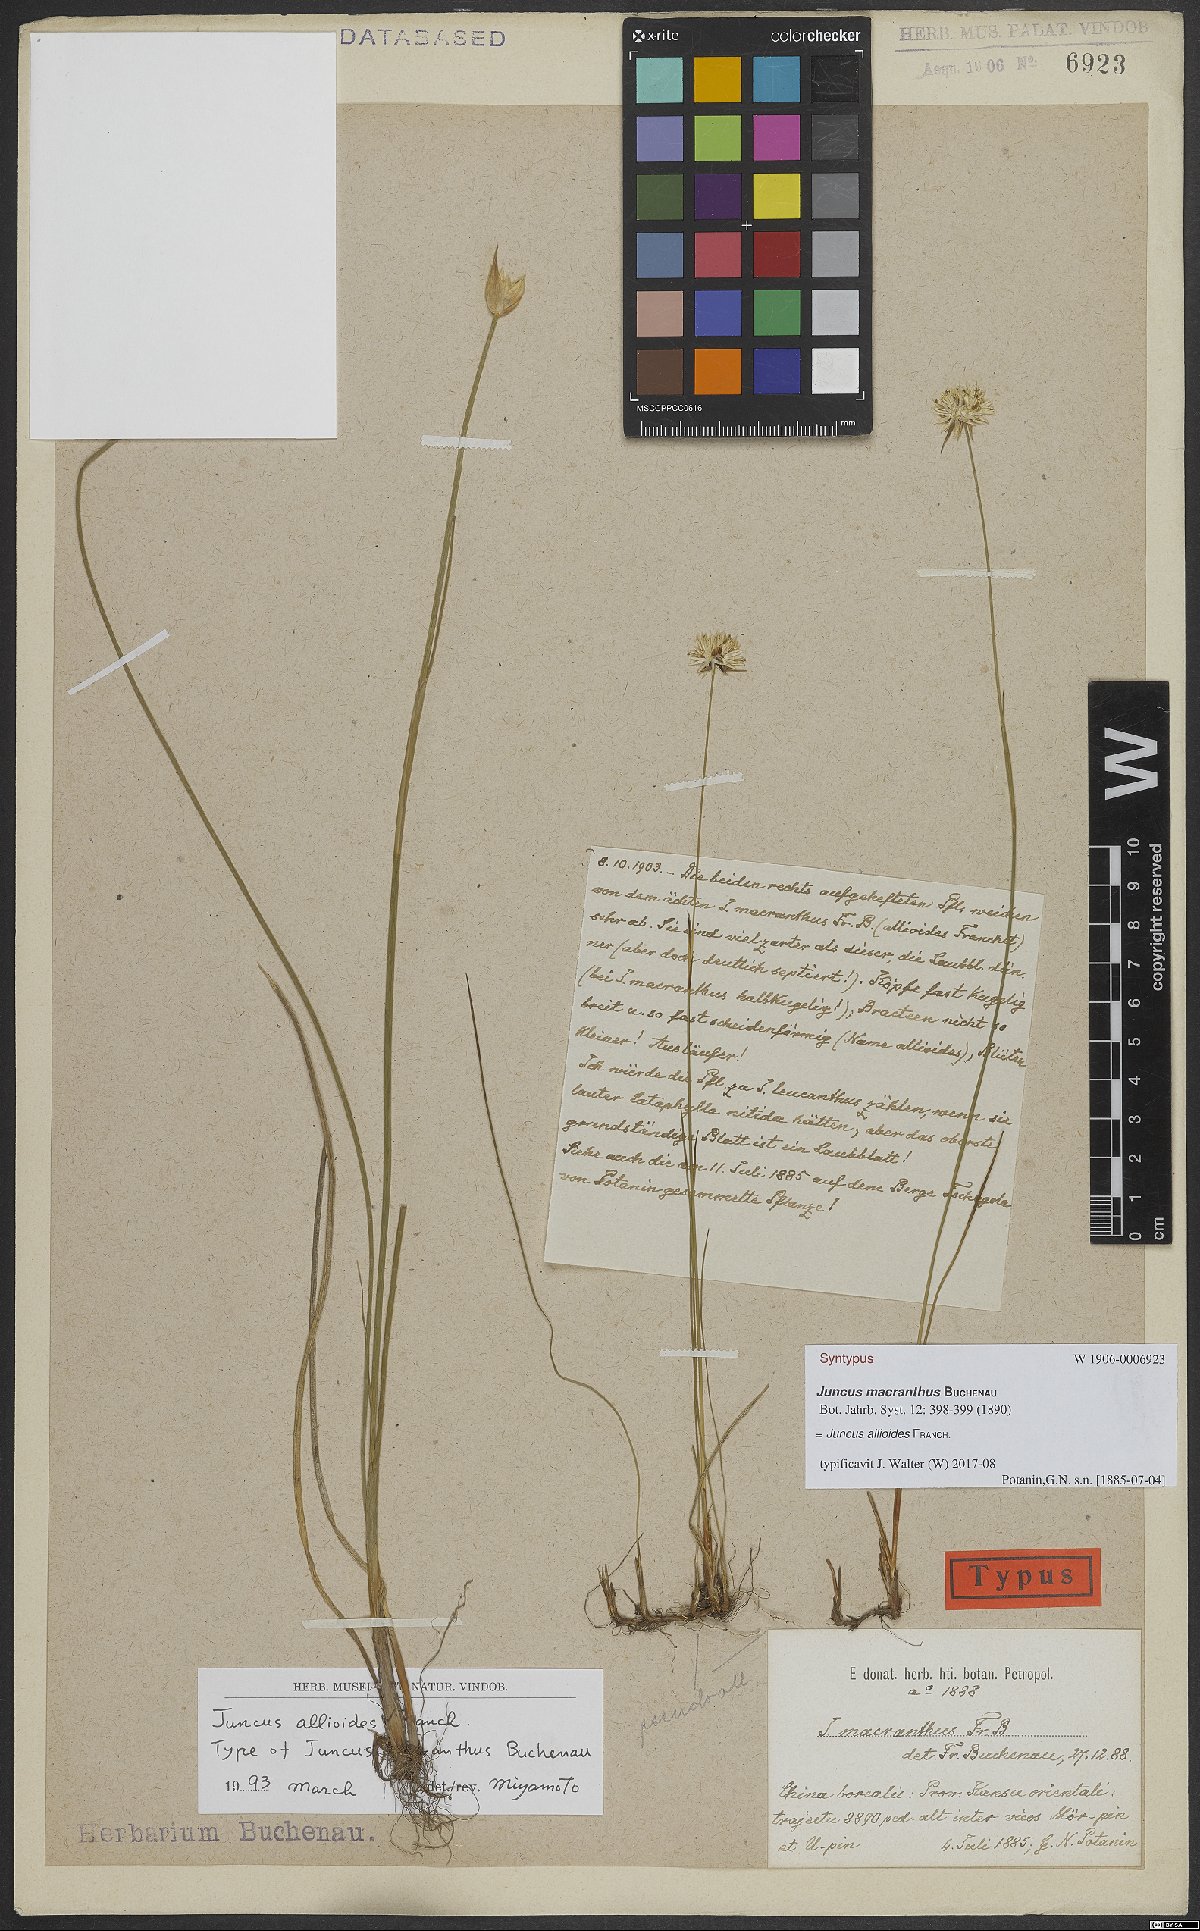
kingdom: Plantae
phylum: Tracheophyta
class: Liliopsida
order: Poales
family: Juncaceae
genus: Juncus
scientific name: Juncus allioides
